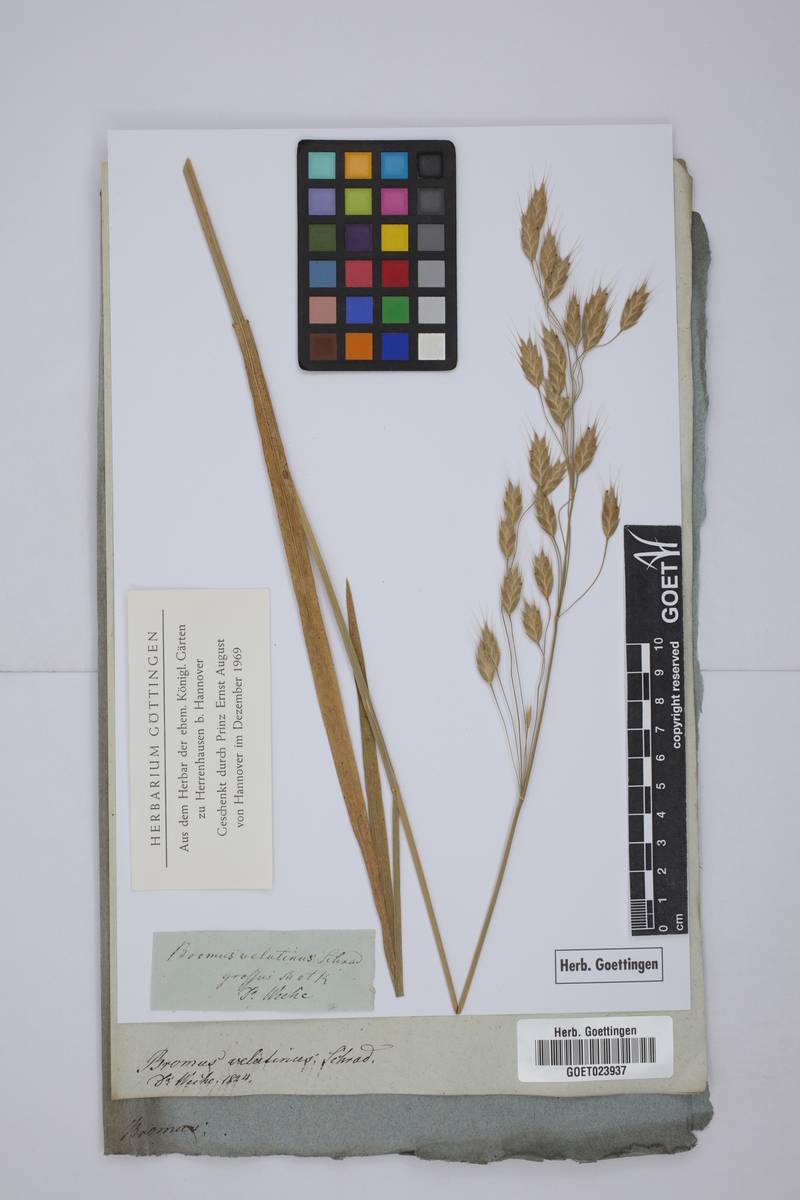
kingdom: Plantae
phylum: Tracheophyta
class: Liliopsida
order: Poales
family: Poaceae
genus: Bromus
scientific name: Bromus secalinus
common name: Rye brome
